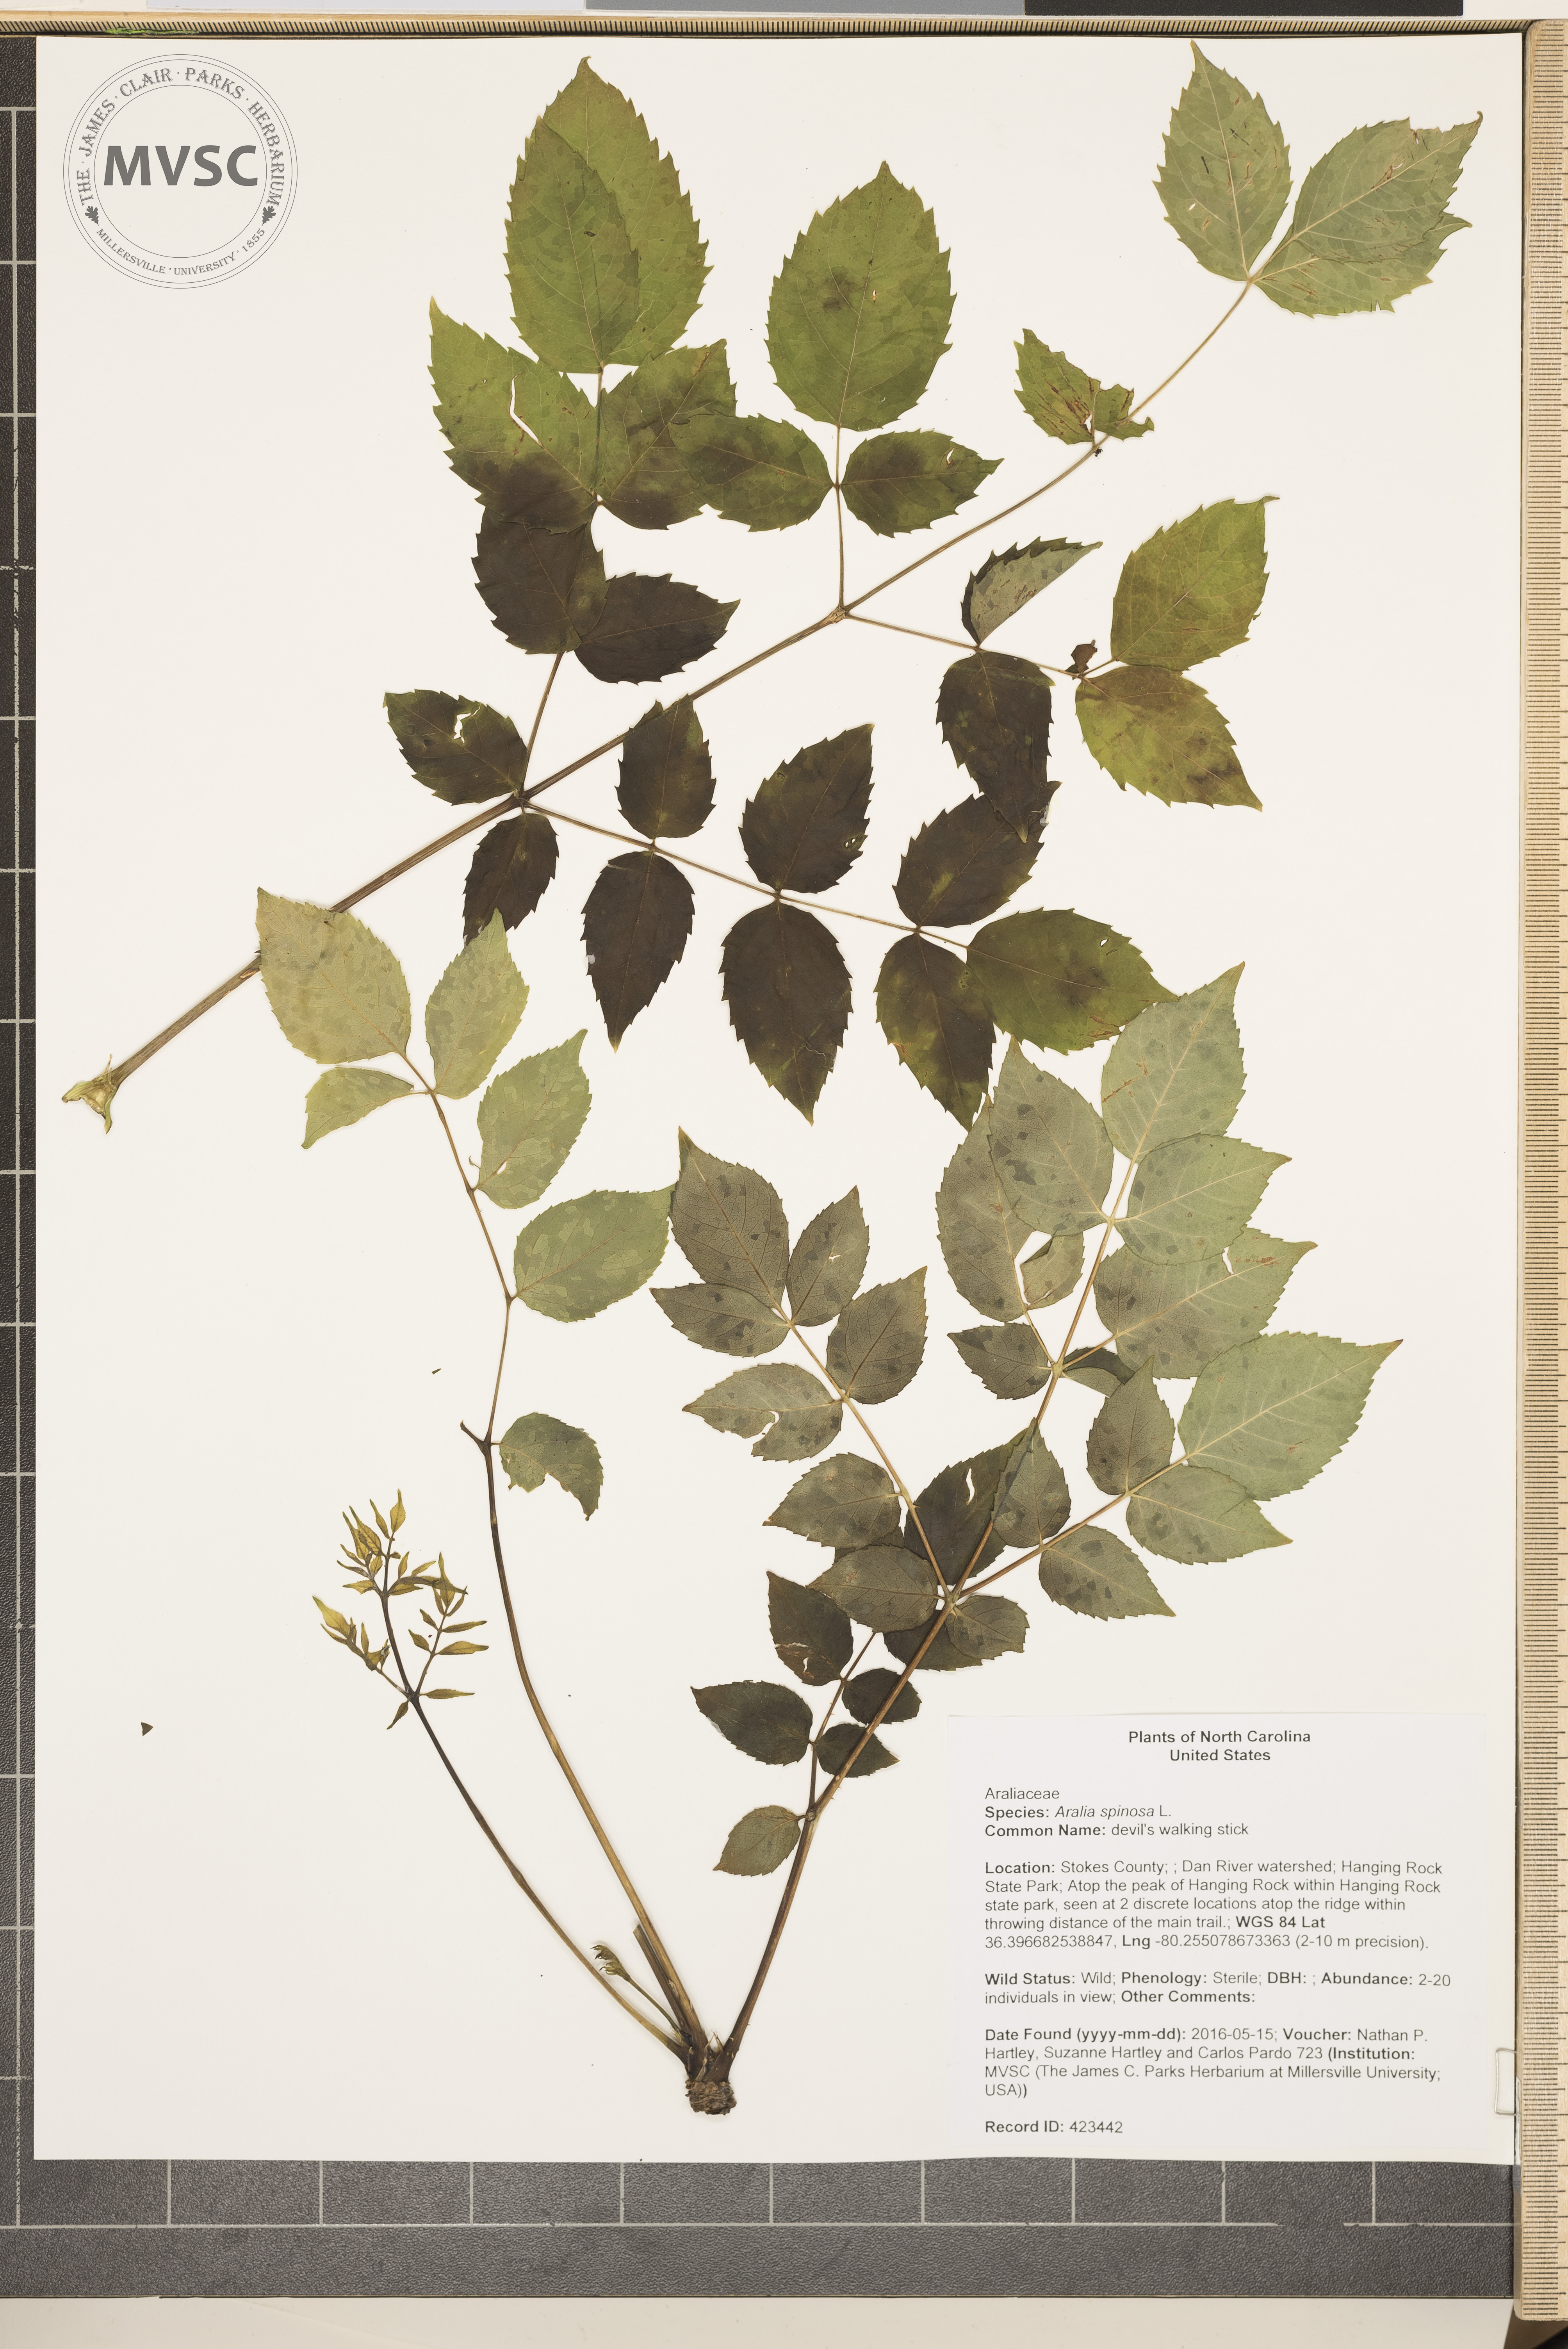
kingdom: Plantae
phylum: Tracheophyta
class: Magnoliopsida
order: Apiales
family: Araliaceae
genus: Aralia
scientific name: Aralia spinosa
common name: devil's walking stick
